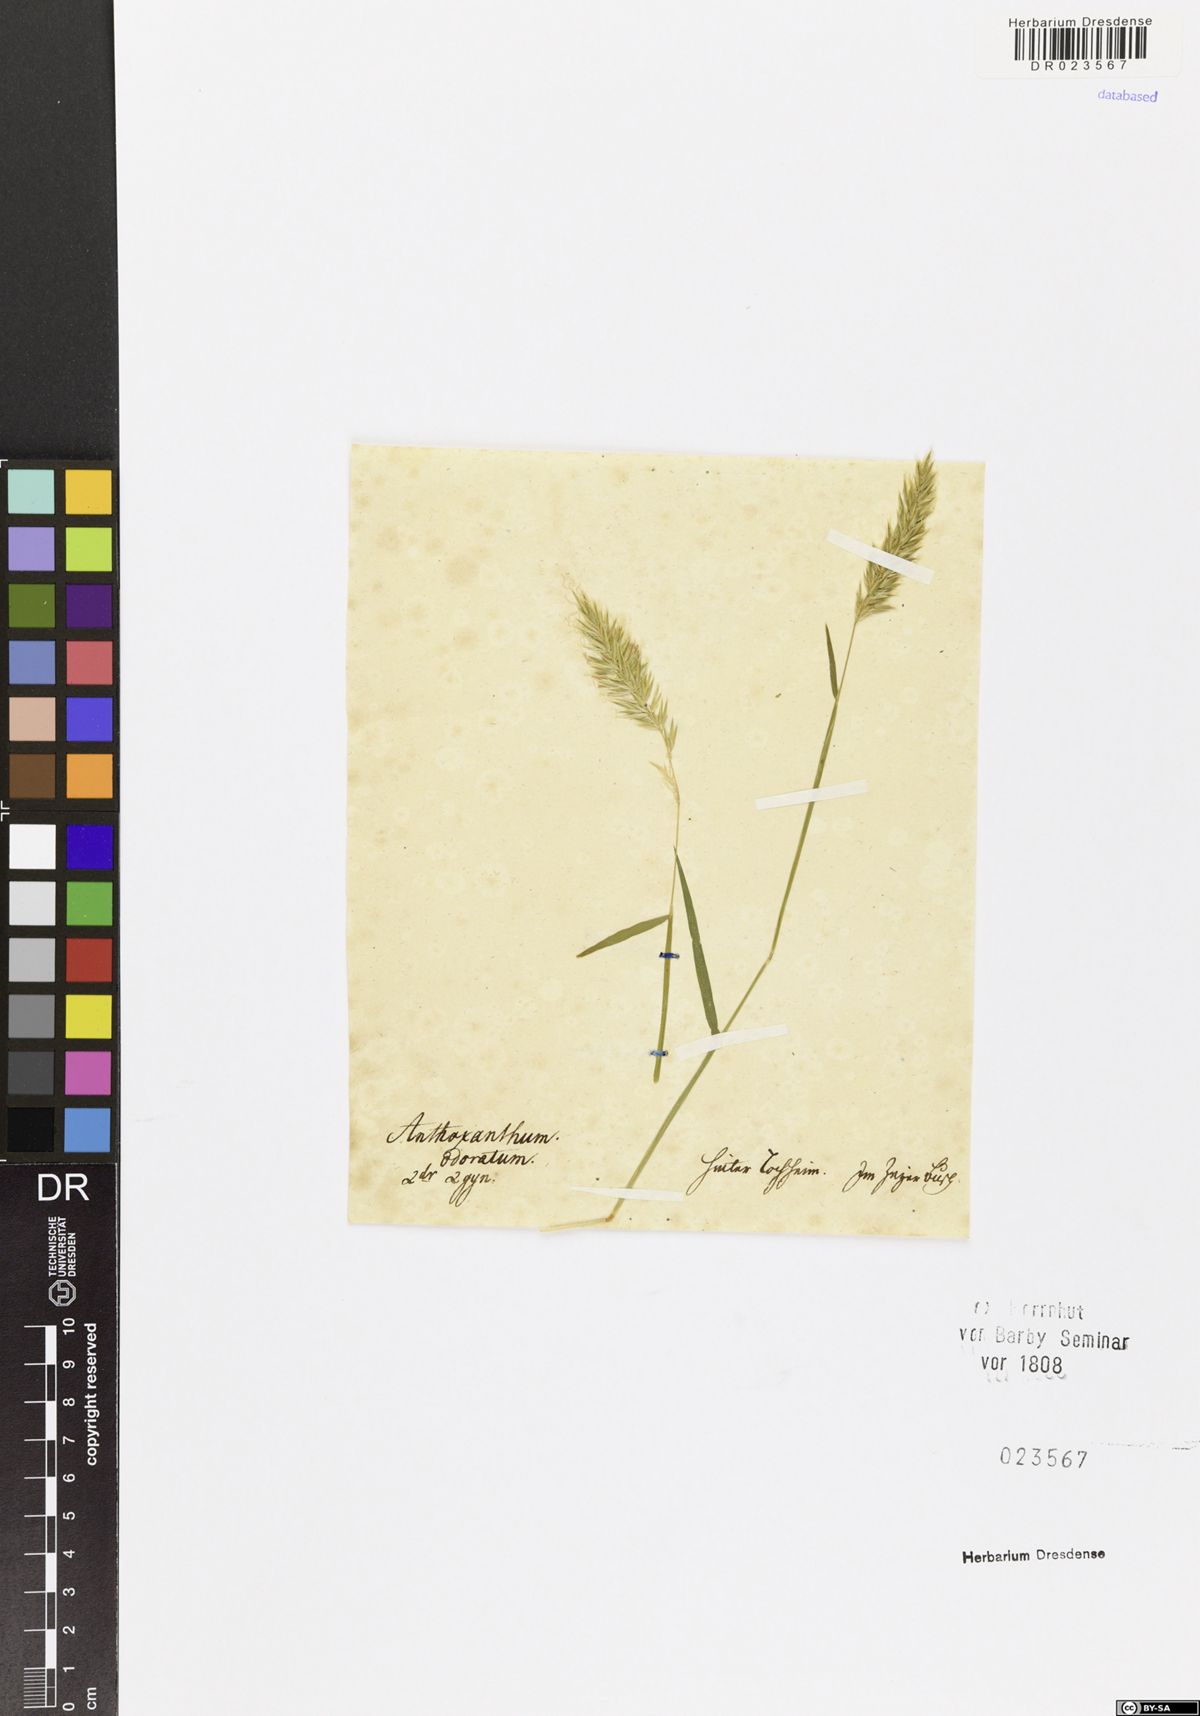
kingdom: Plantae
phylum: Tracheophyta
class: Liliopsida
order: Poales
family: Poaceae
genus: Anthoxanthum
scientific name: Anthoxanthum odoratum
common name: Sweet vernalgrass
